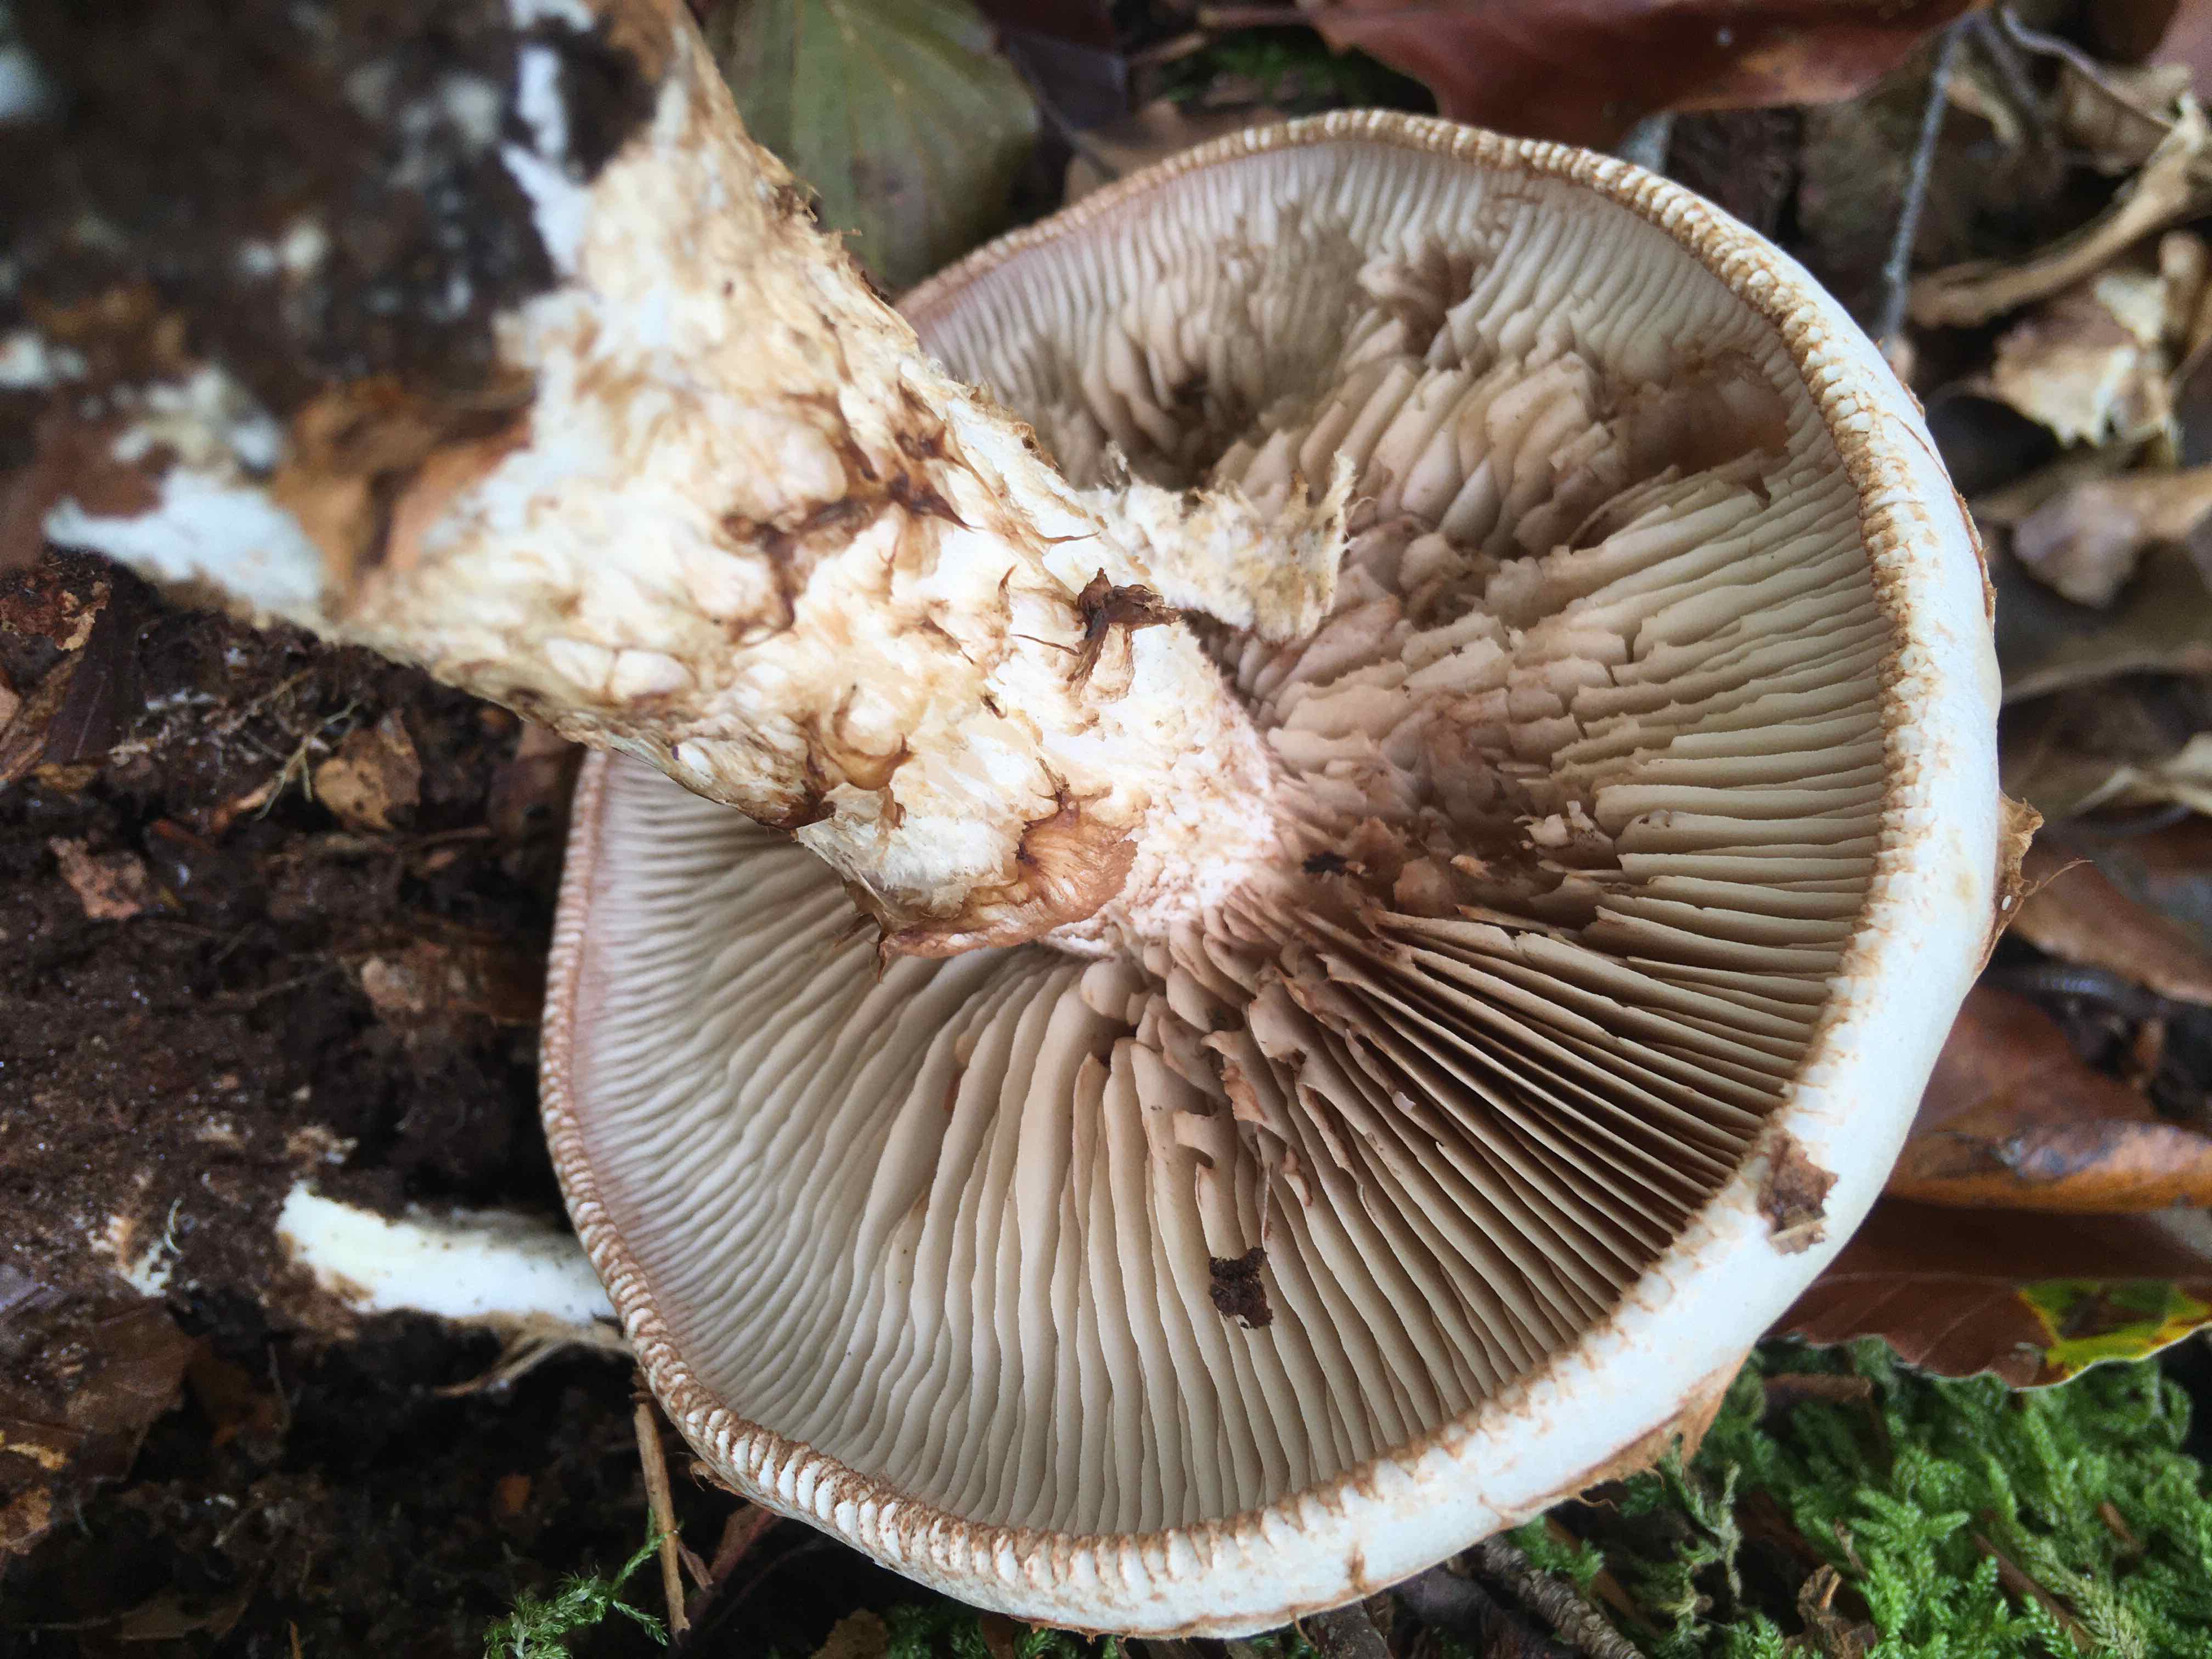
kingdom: Fungi
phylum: Basidiomycota
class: Agaricomycetes
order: Agaricales
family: Hymenogastraceae
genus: Hebeloma
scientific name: Hebeloma radicosum
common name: pælerods-tåreblad
